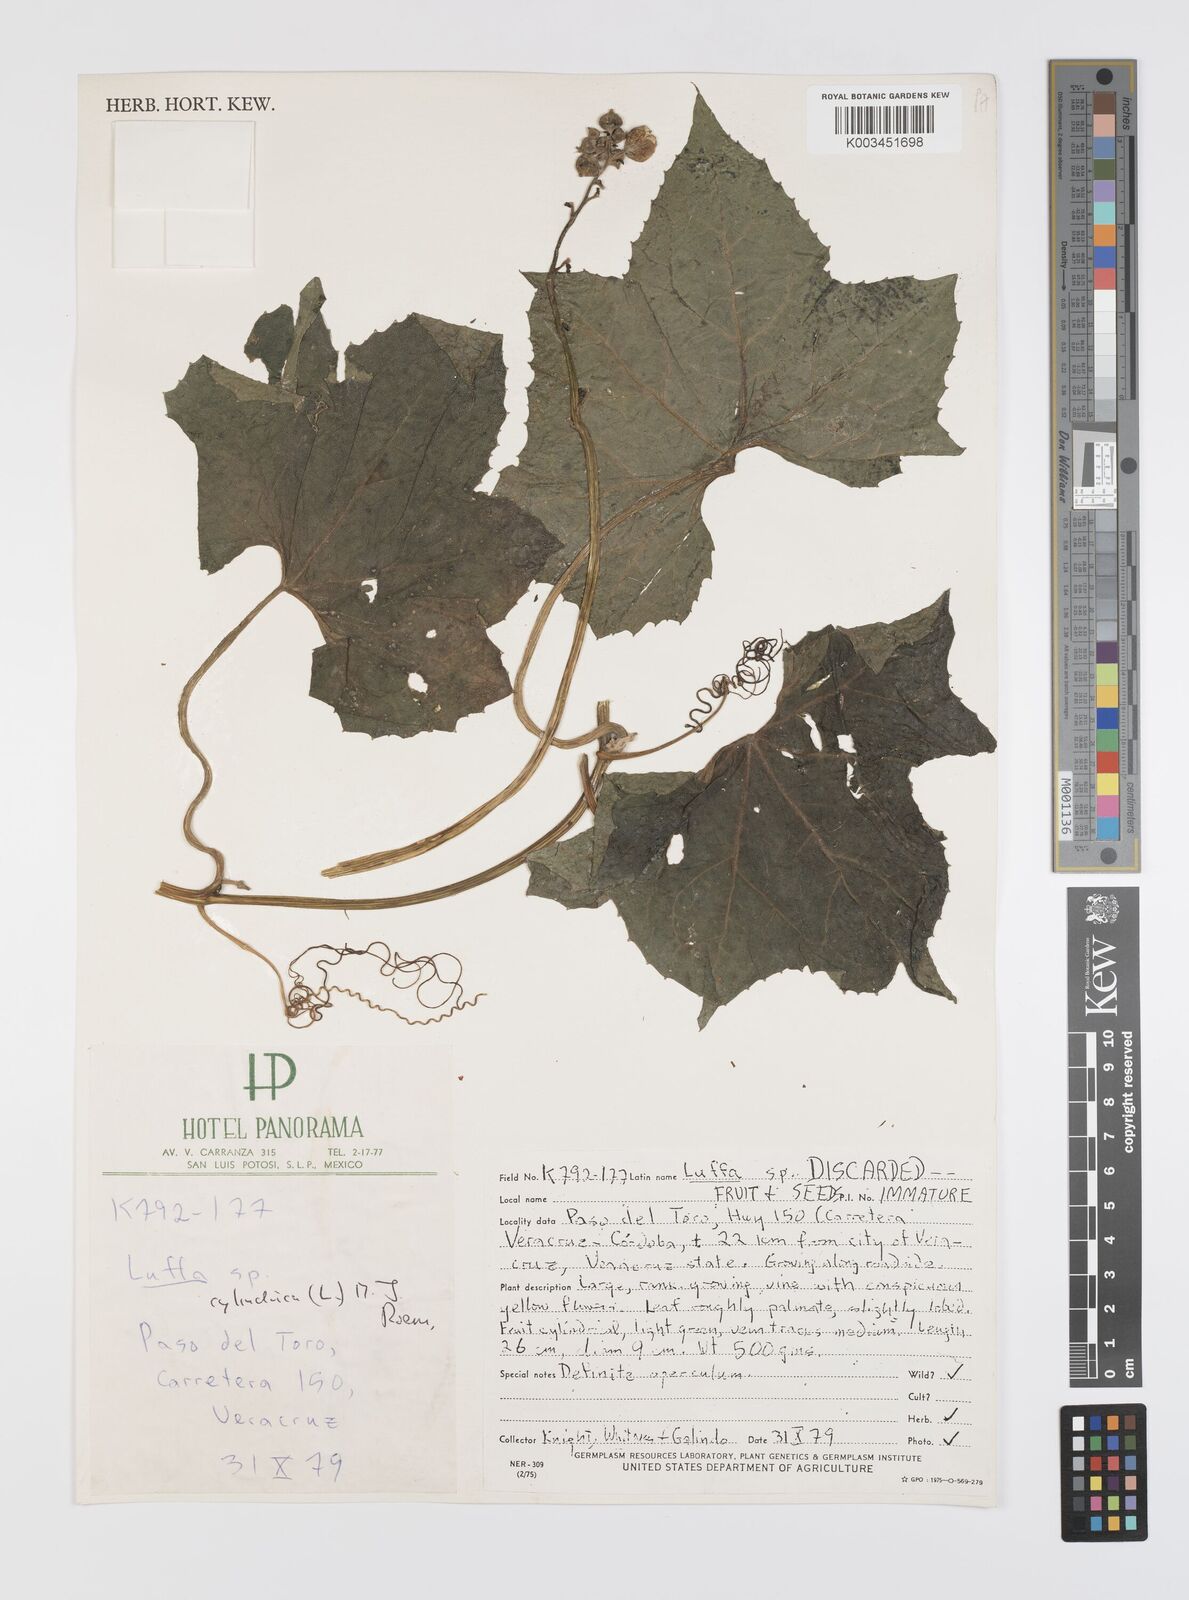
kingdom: Plantae
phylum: Tracheophyta
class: Magnoliopsida
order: Cucurbitales
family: Cucurbitaceae
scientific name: Cucurbitaceae
